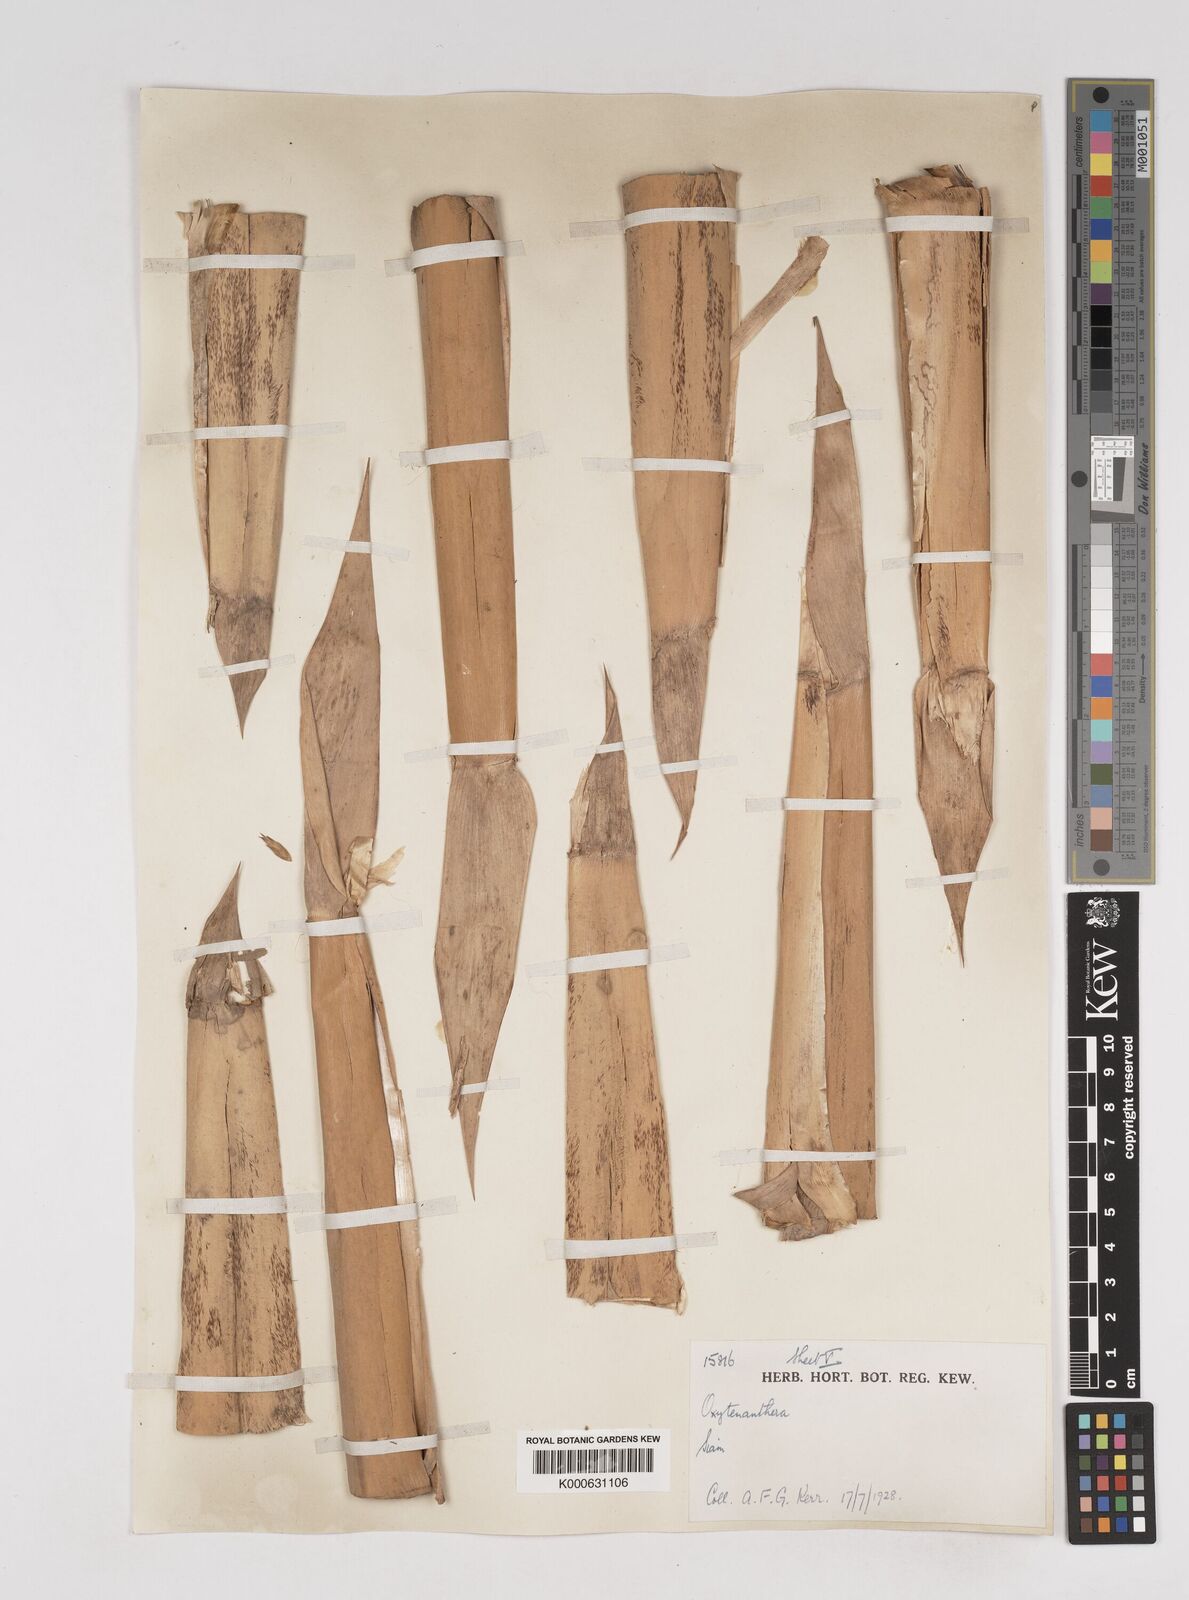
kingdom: Plantae
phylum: Tracheophyta
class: Liliopsida
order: Poales
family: Poaceae
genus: Gigantochloa
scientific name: Gigantochloa ligulata
